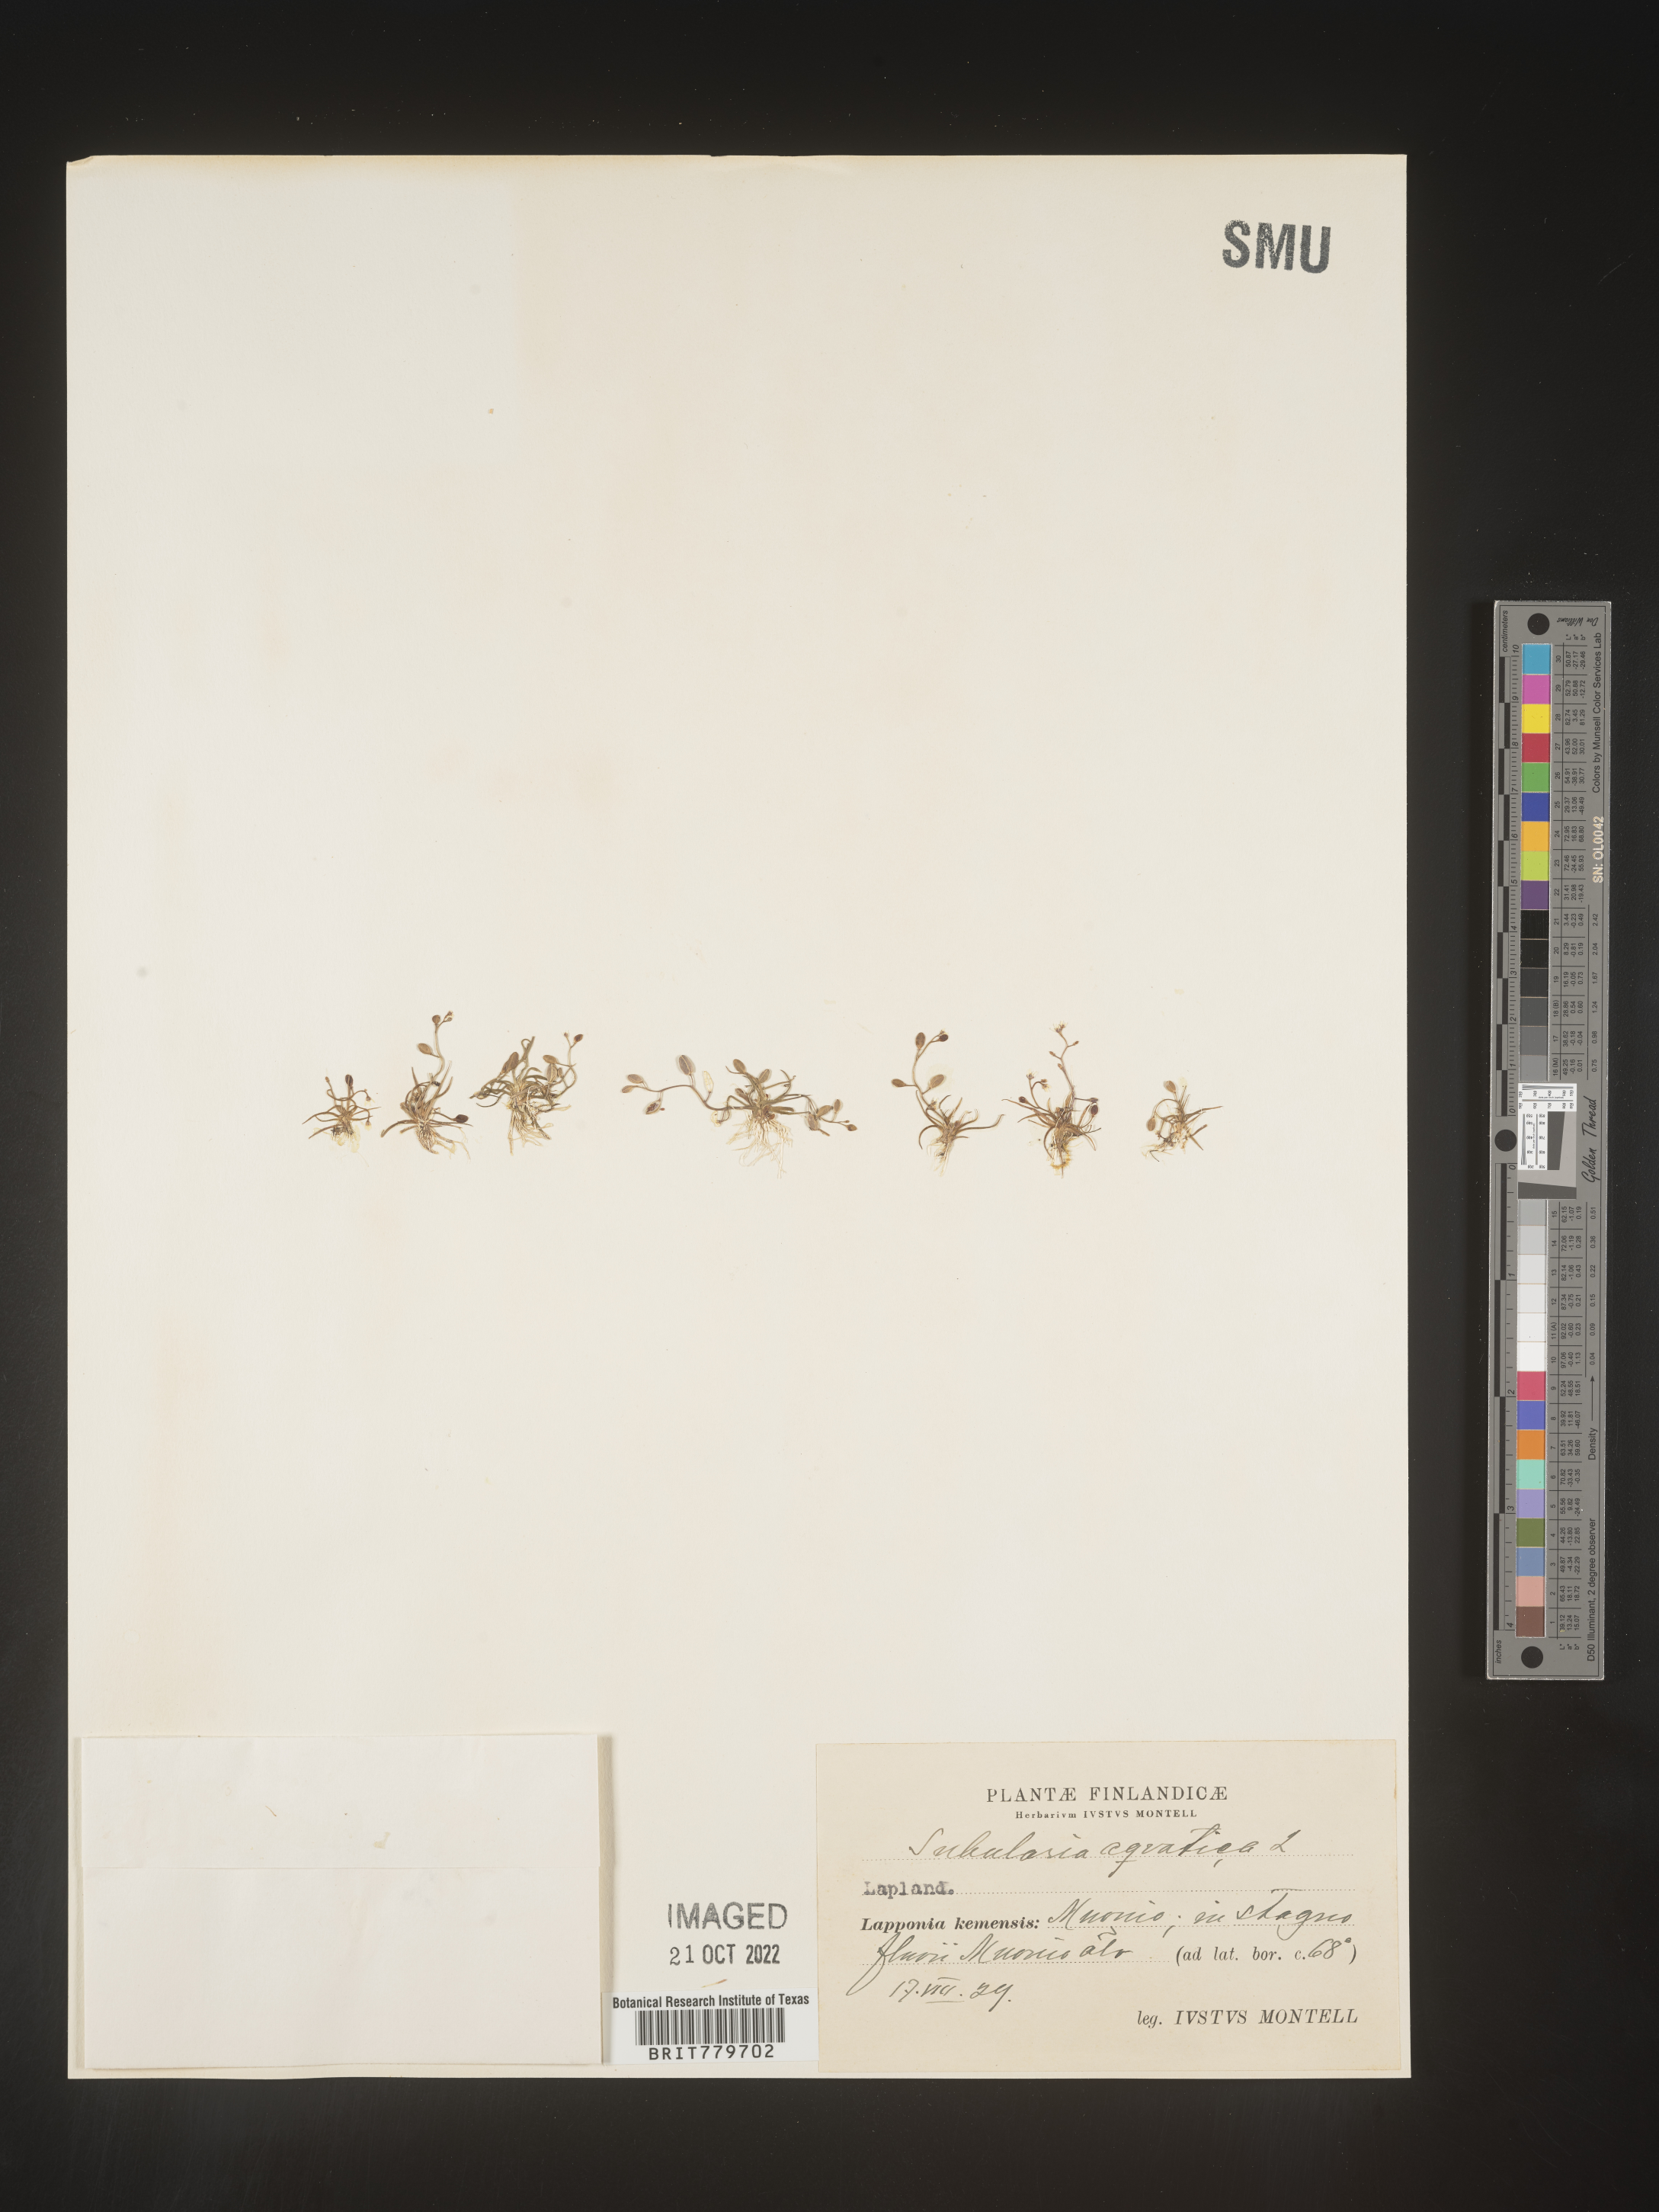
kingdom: Plantae
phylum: Tracheophyta
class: Magnoliopsida
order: Brassicales
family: Brassicaceae
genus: Subularia
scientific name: Subularia
